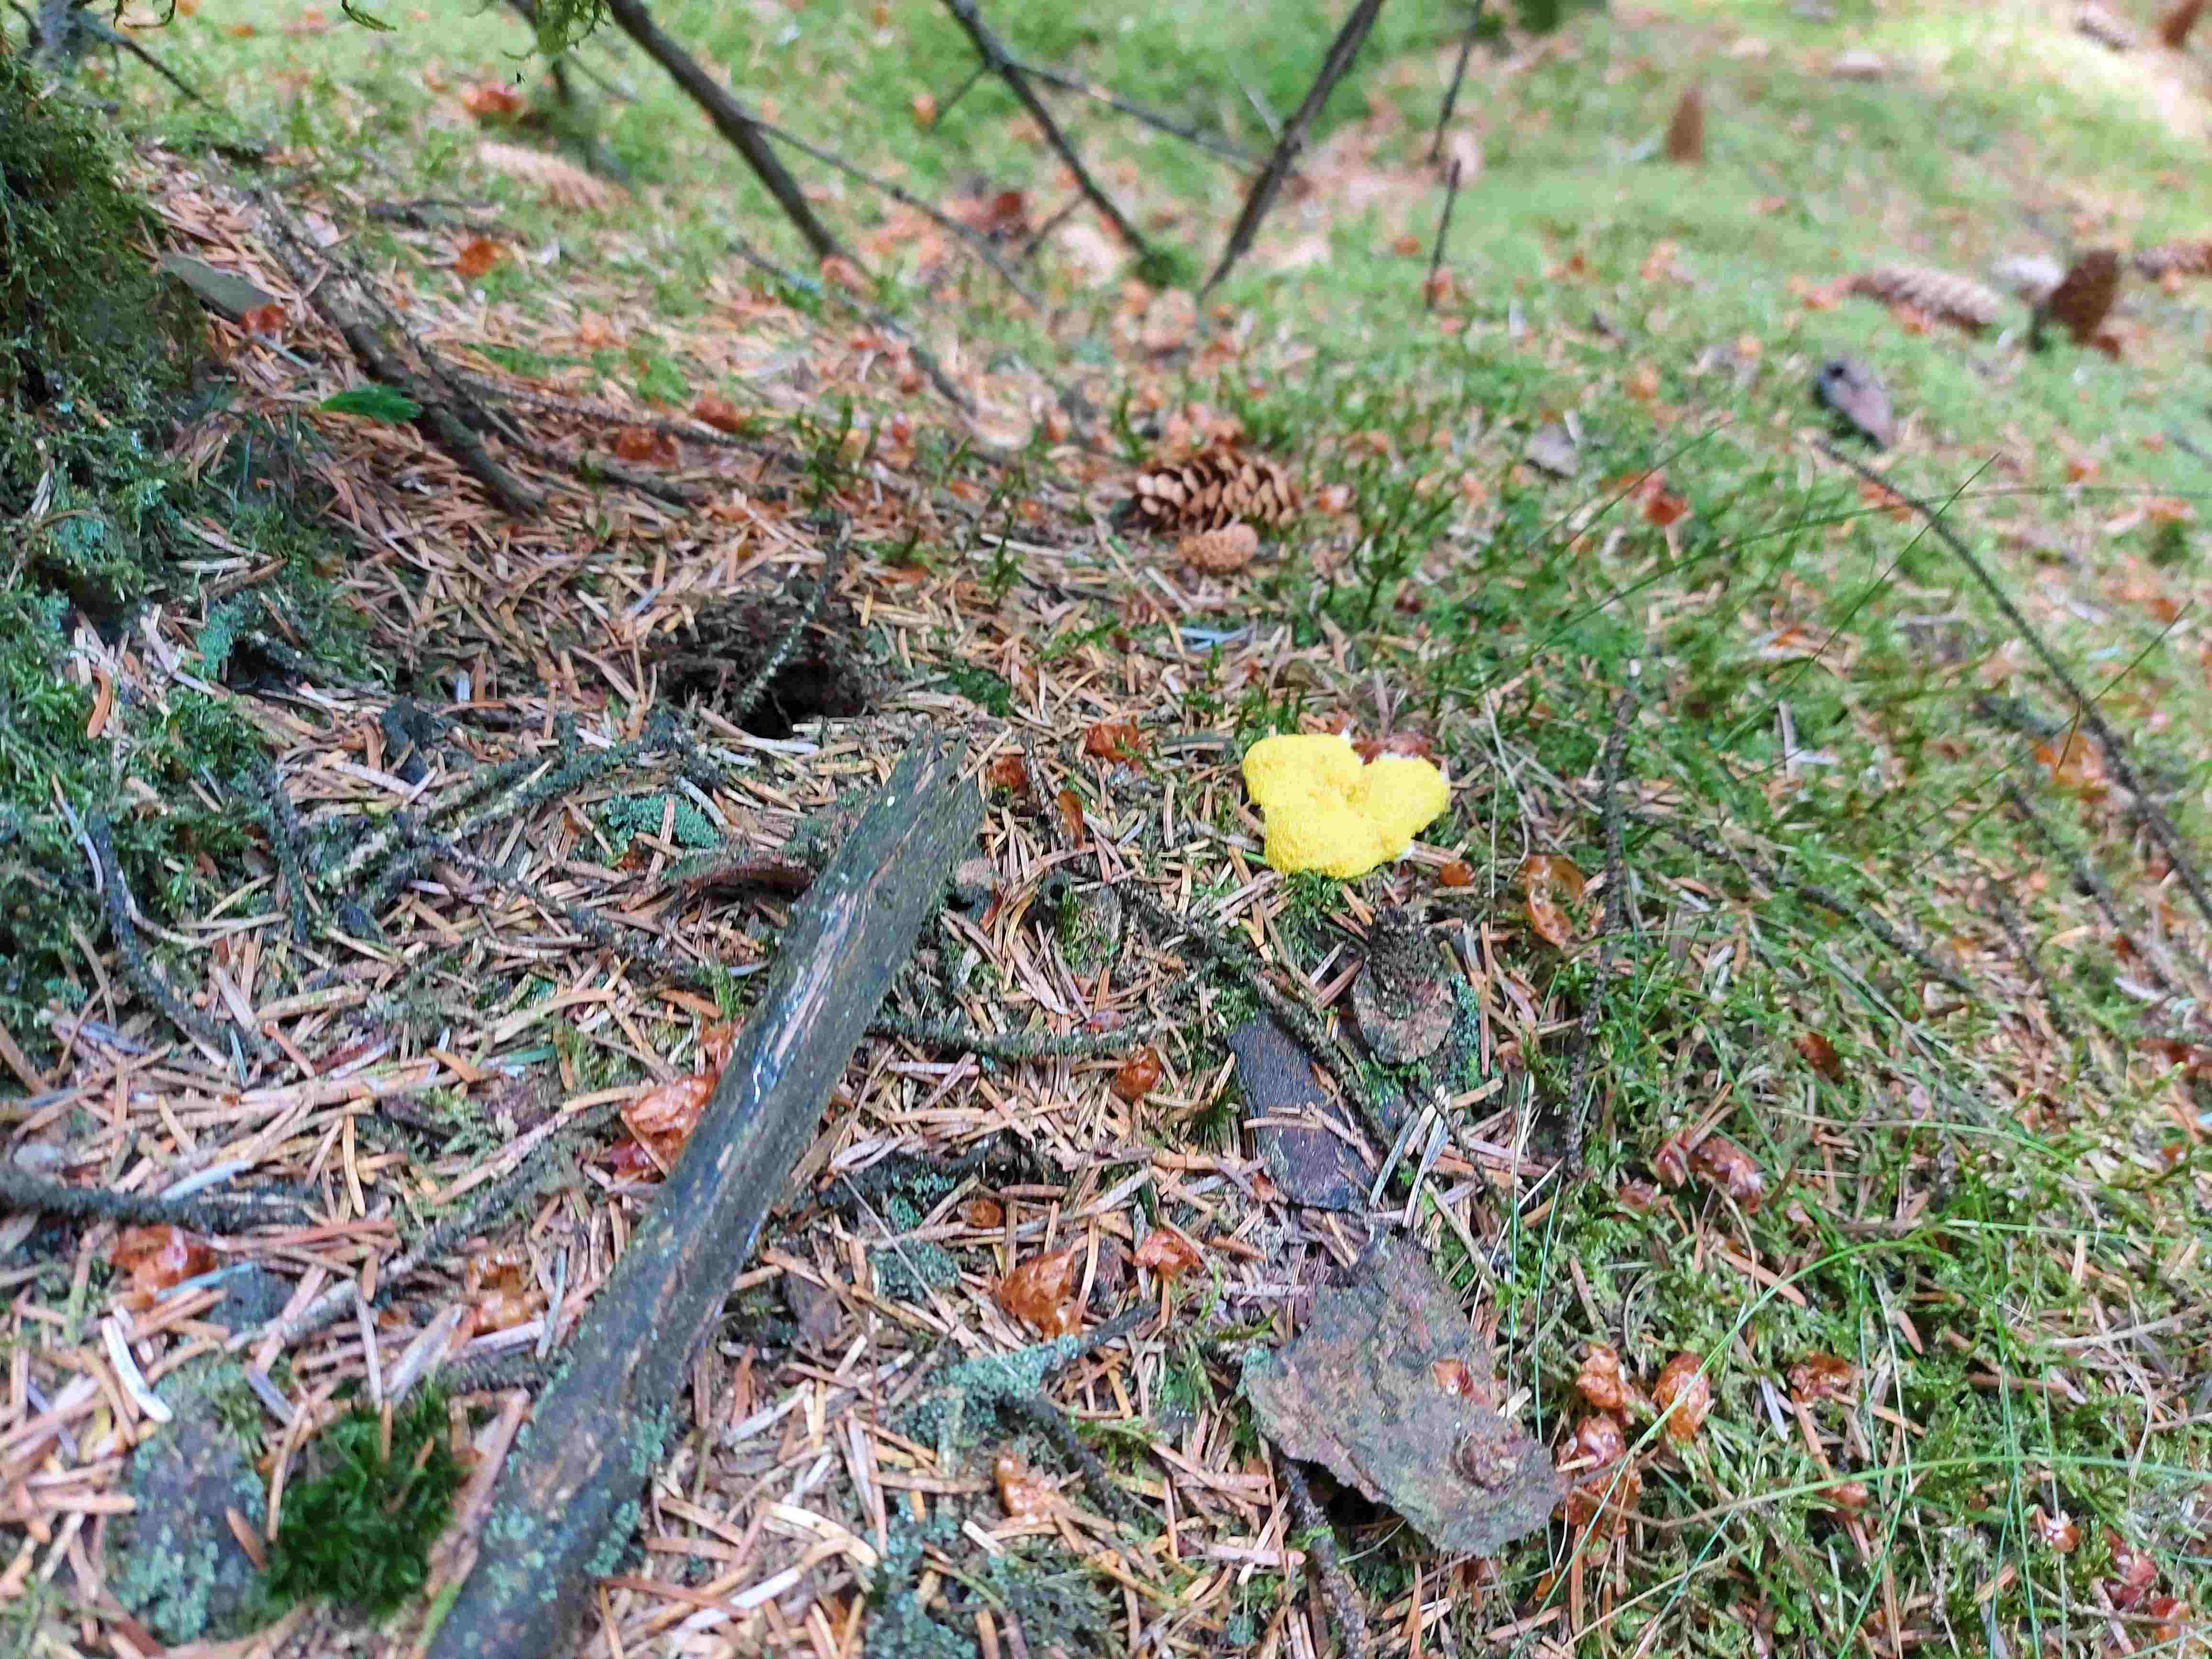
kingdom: Protozoa
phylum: Mycetozoa
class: Myxomycetes
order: Physarales
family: Physaraceae
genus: Fuligo
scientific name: Fuligo septica
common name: gul troldsmør
